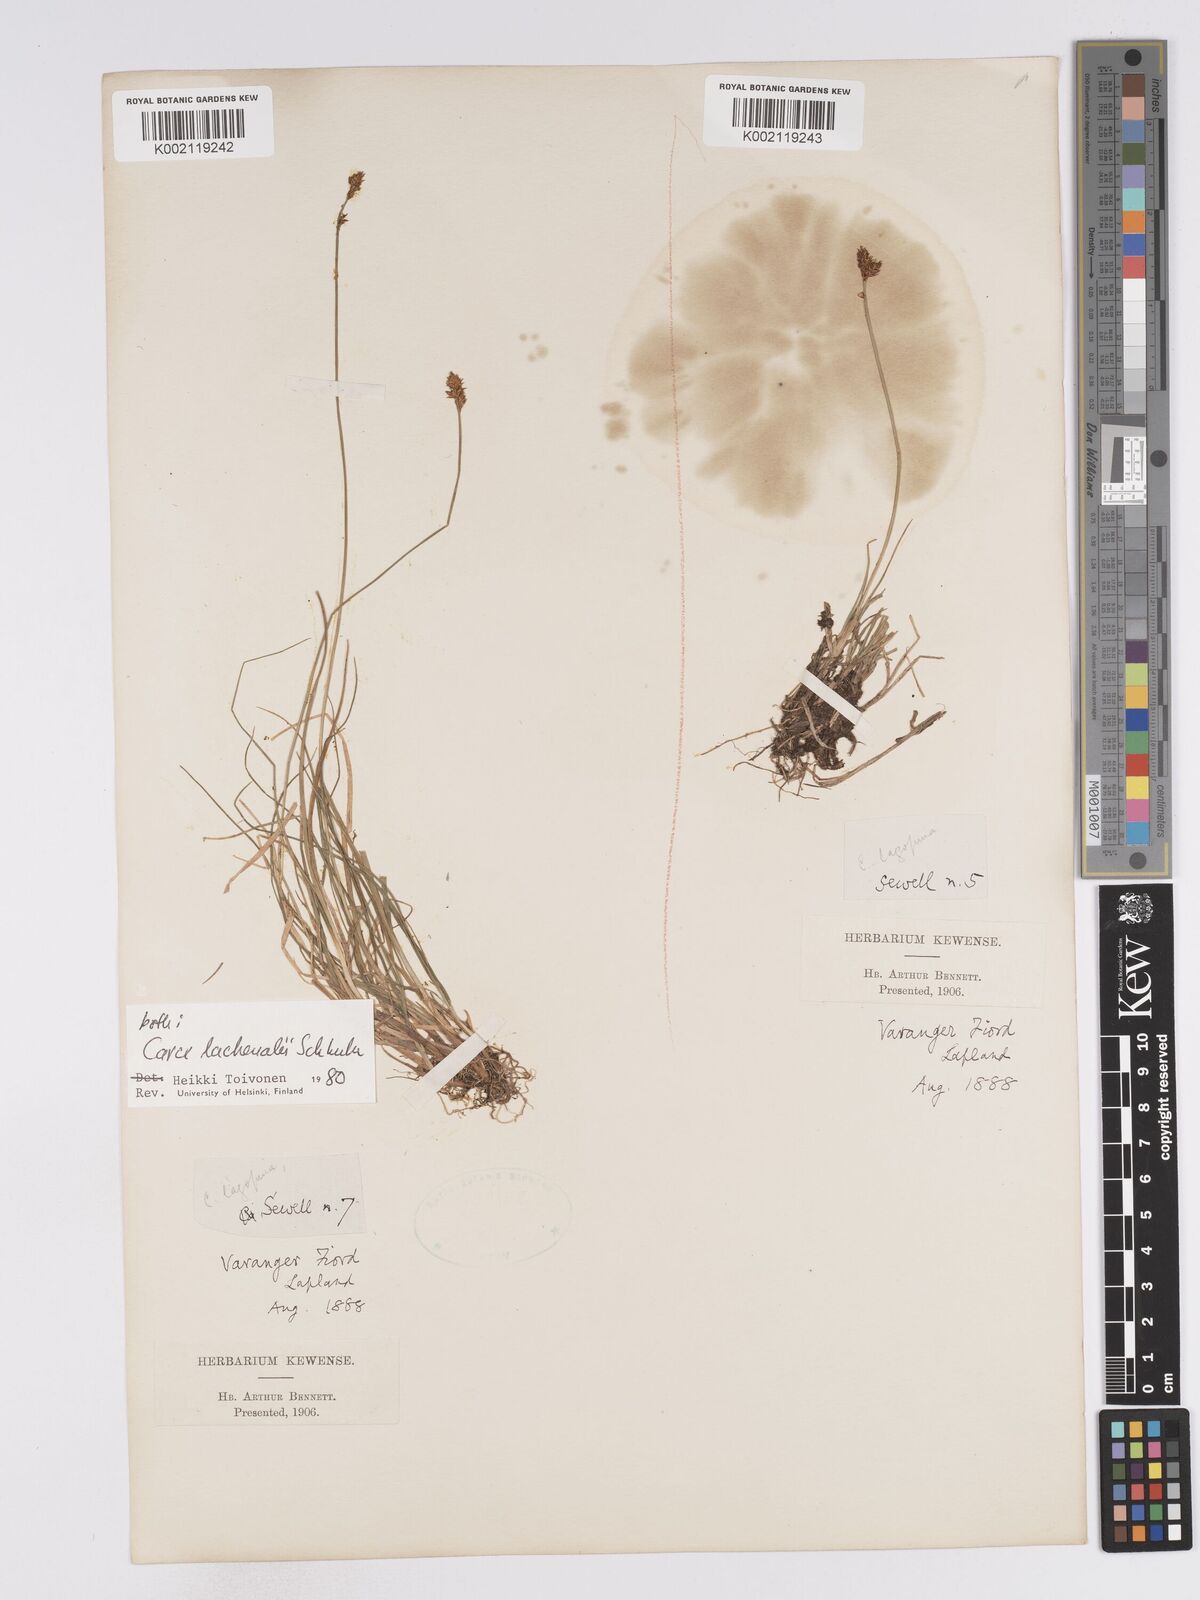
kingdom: Plantae
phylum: Tracheophyta
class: Liliopsida
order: Poales
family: Cyperaceae
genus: Carex
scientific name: Carex lachenalii
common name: Hare's-foot sedge
